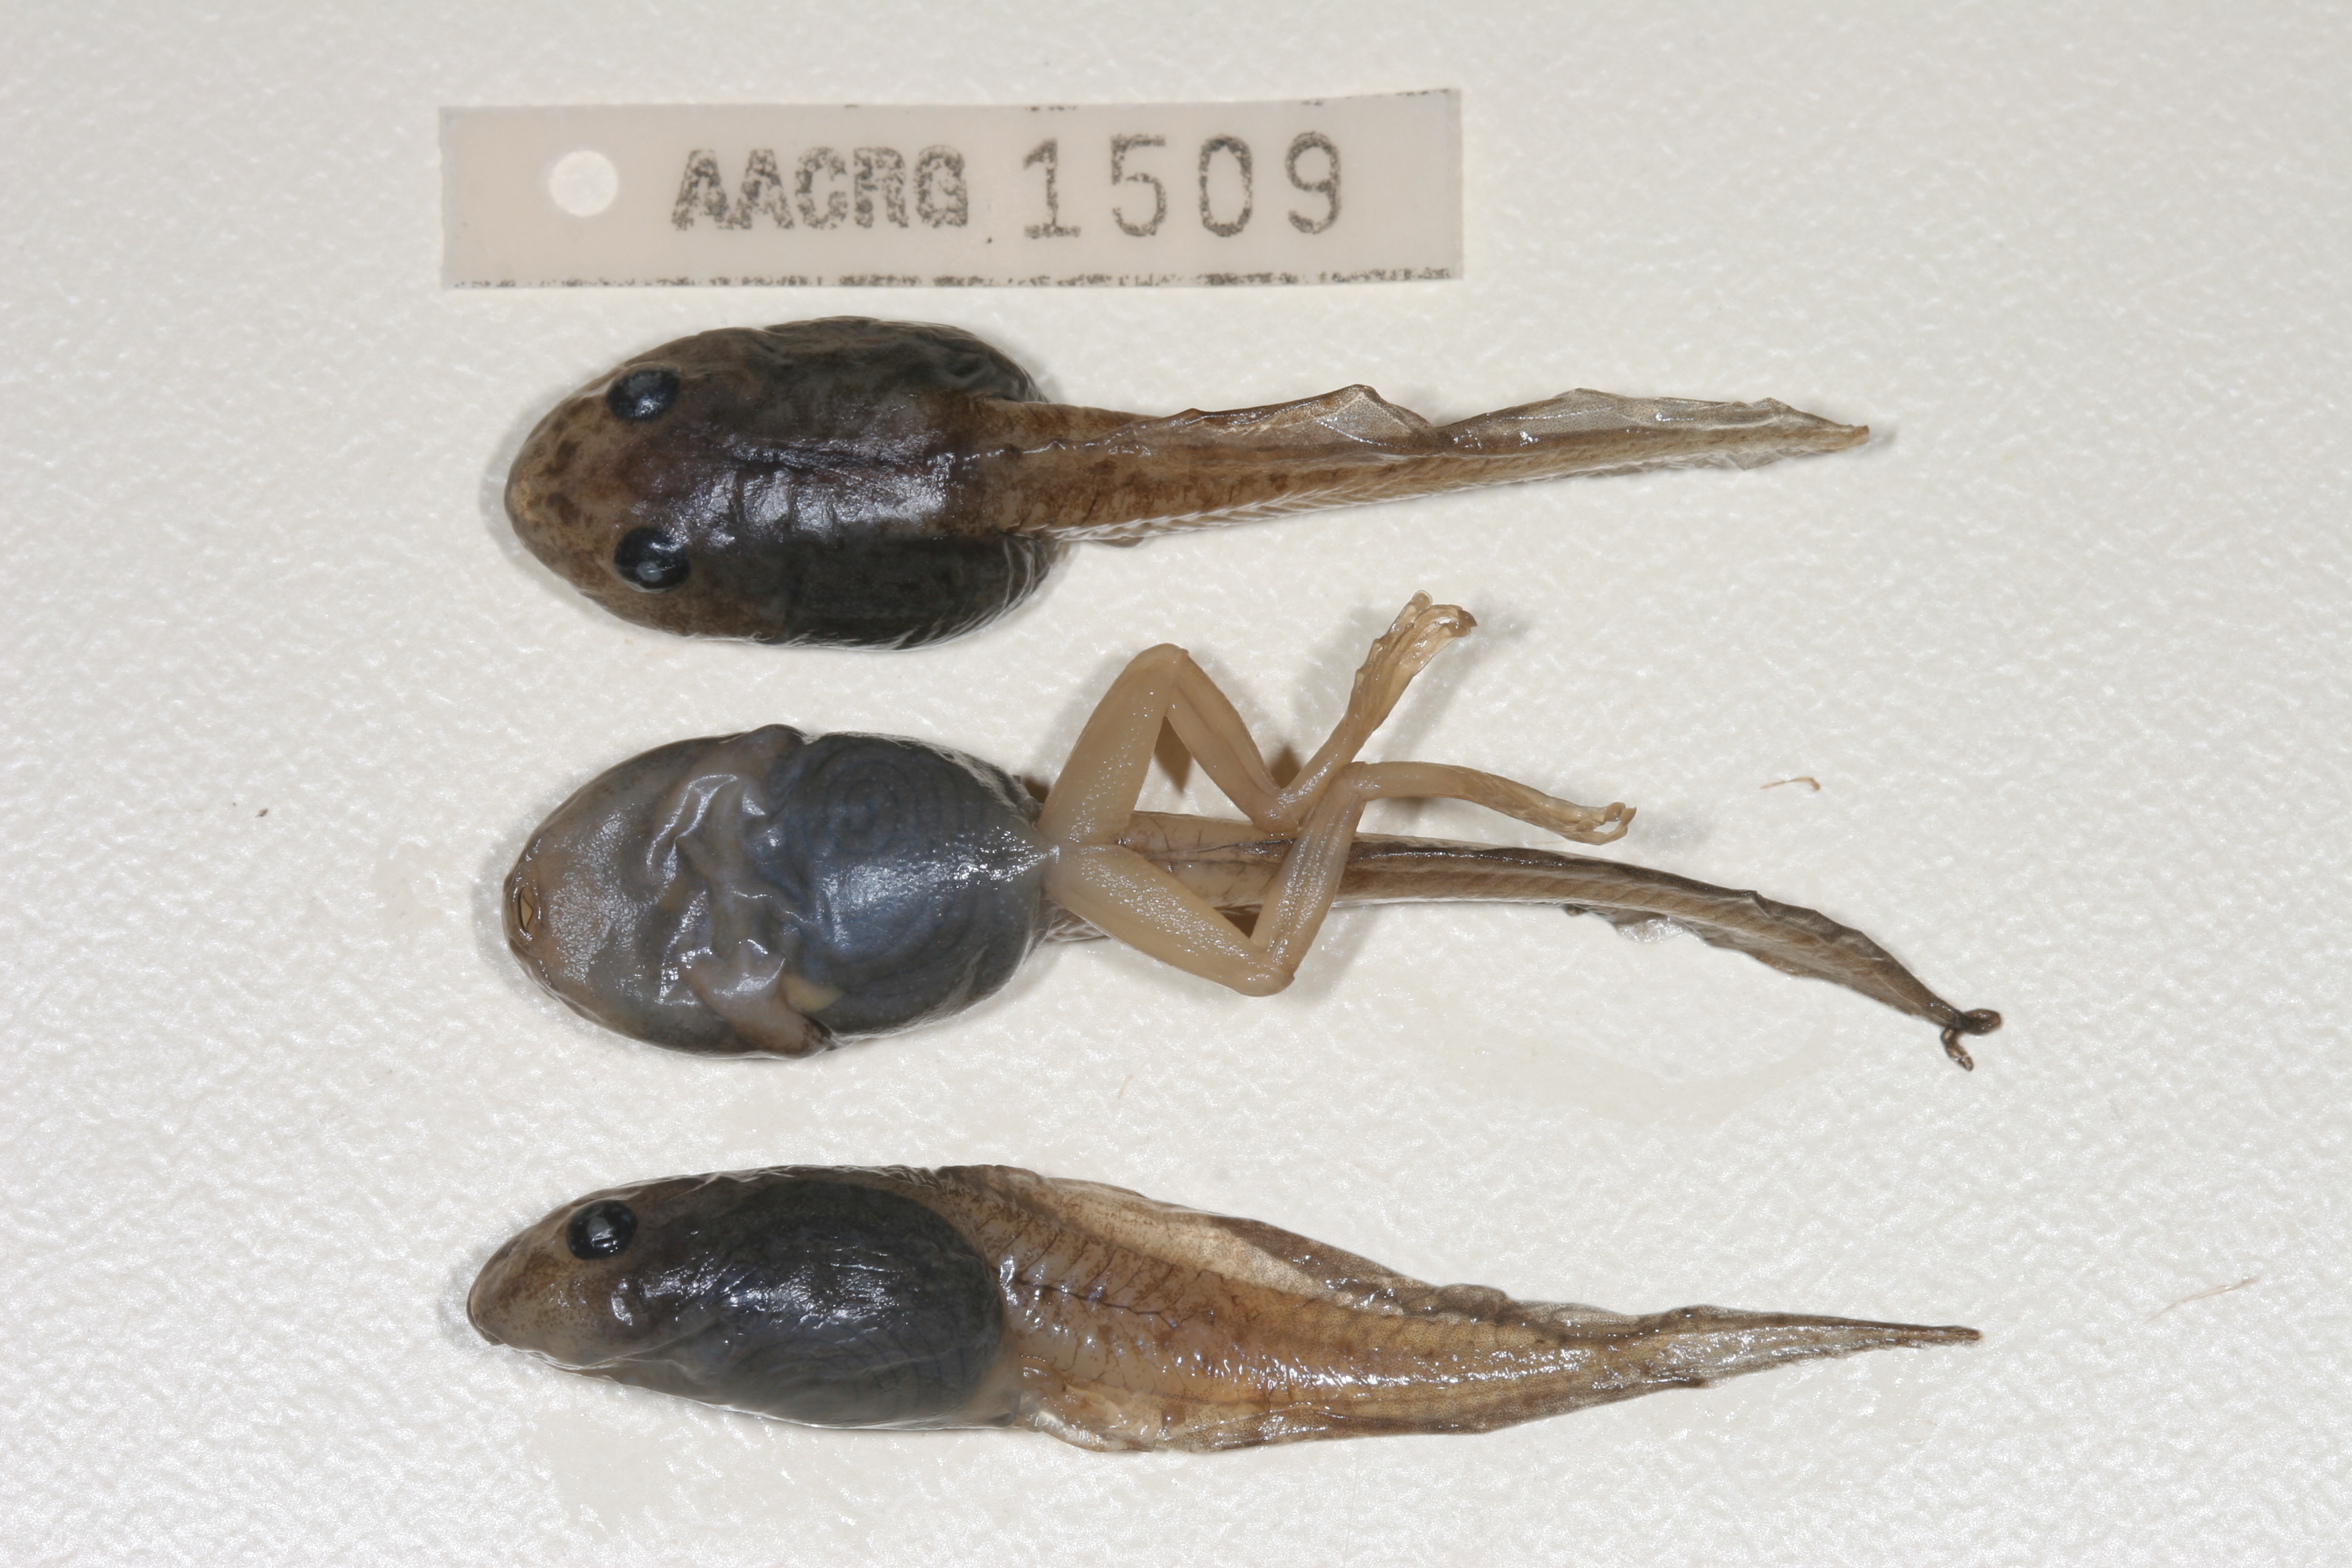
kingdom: Animalia
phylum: Chordata
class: Amphibia
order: Anura
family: Rhacophoridae
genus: Chiromantis
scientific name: Chiromantis xerampelina
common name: African gray treefrog
